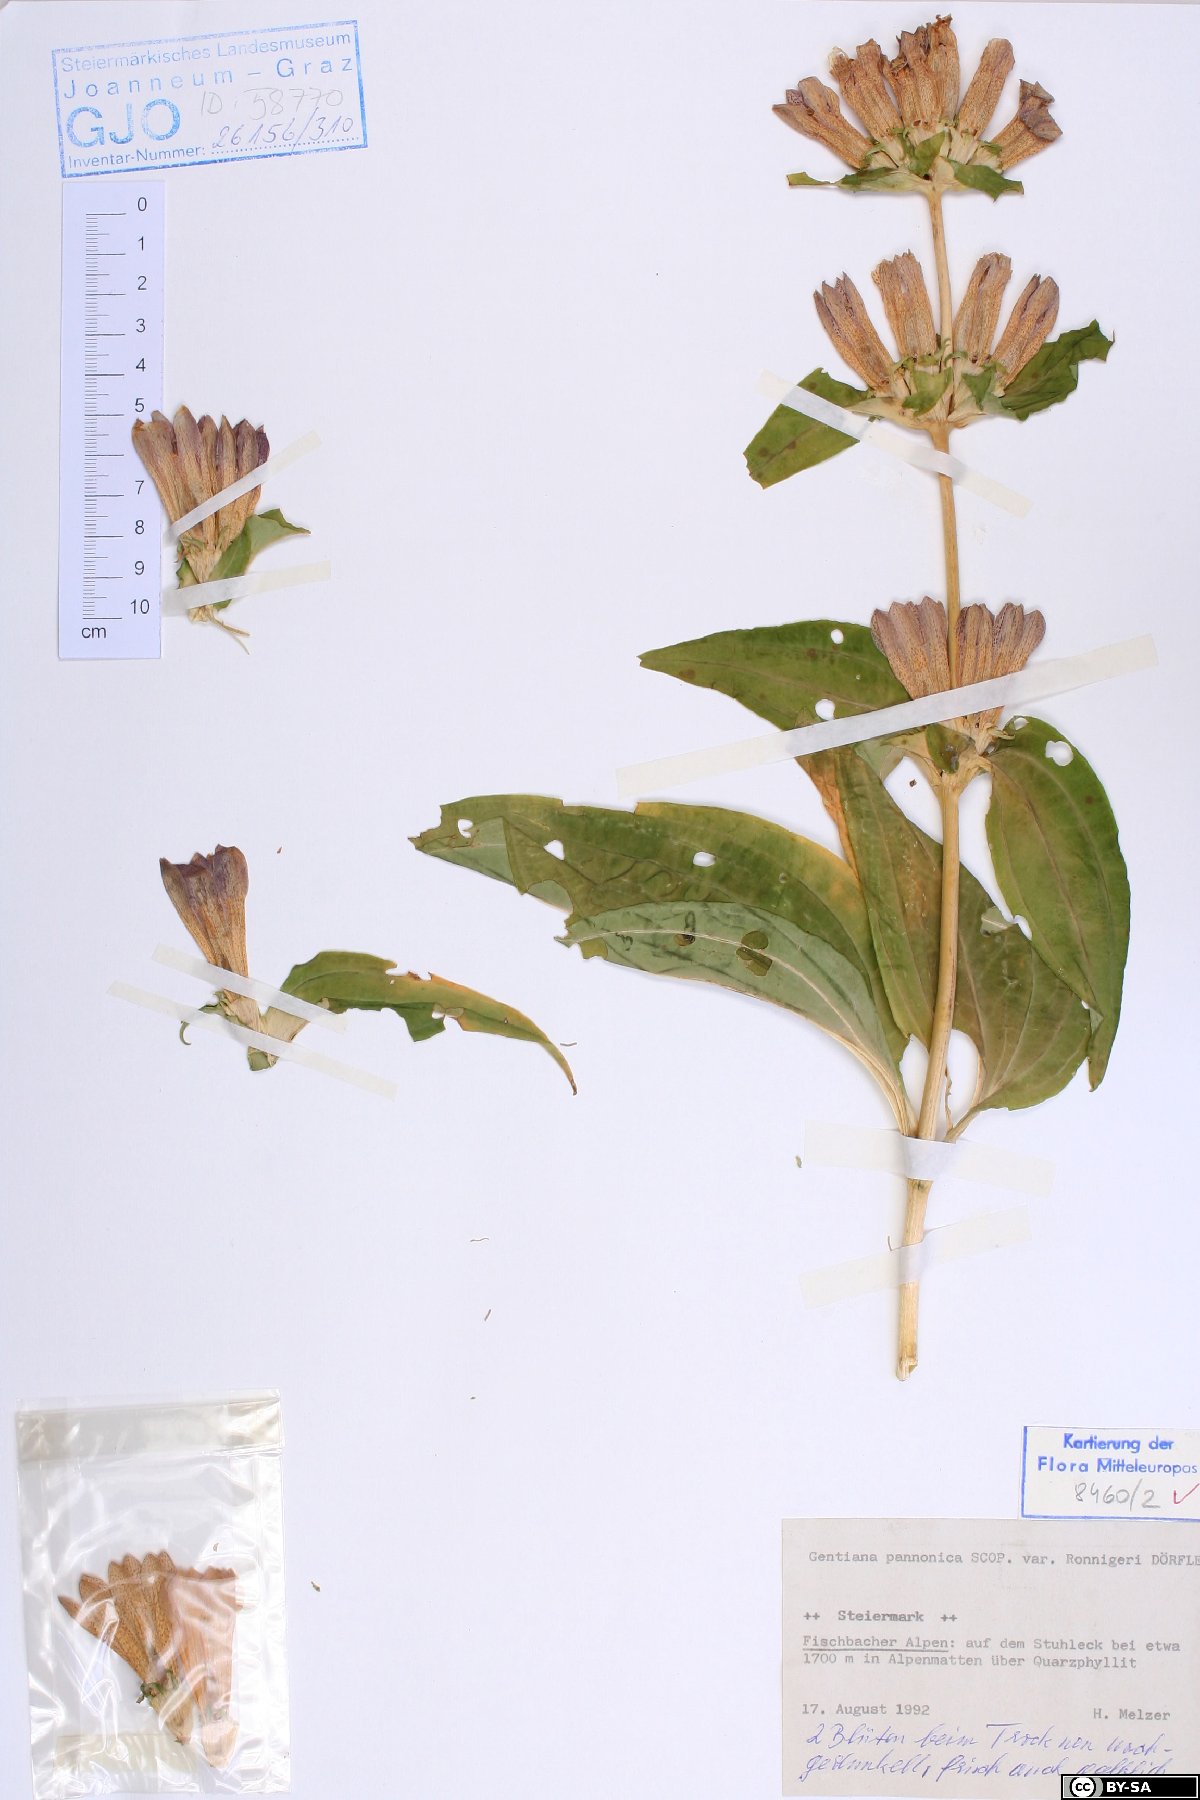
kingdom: Plantae
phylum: Tracheophyta
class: Magnoliopsida
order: Gentianales
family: Gentianaceae
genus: Gentiana
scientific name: Gentiana pannonica
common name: Hungarian gentian
